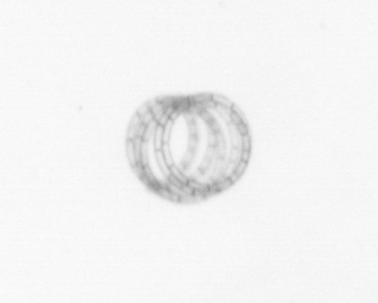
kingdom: Chromista
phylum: Ochrophyta
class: Bacillariophyceae
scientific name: Bacillariophyceae
